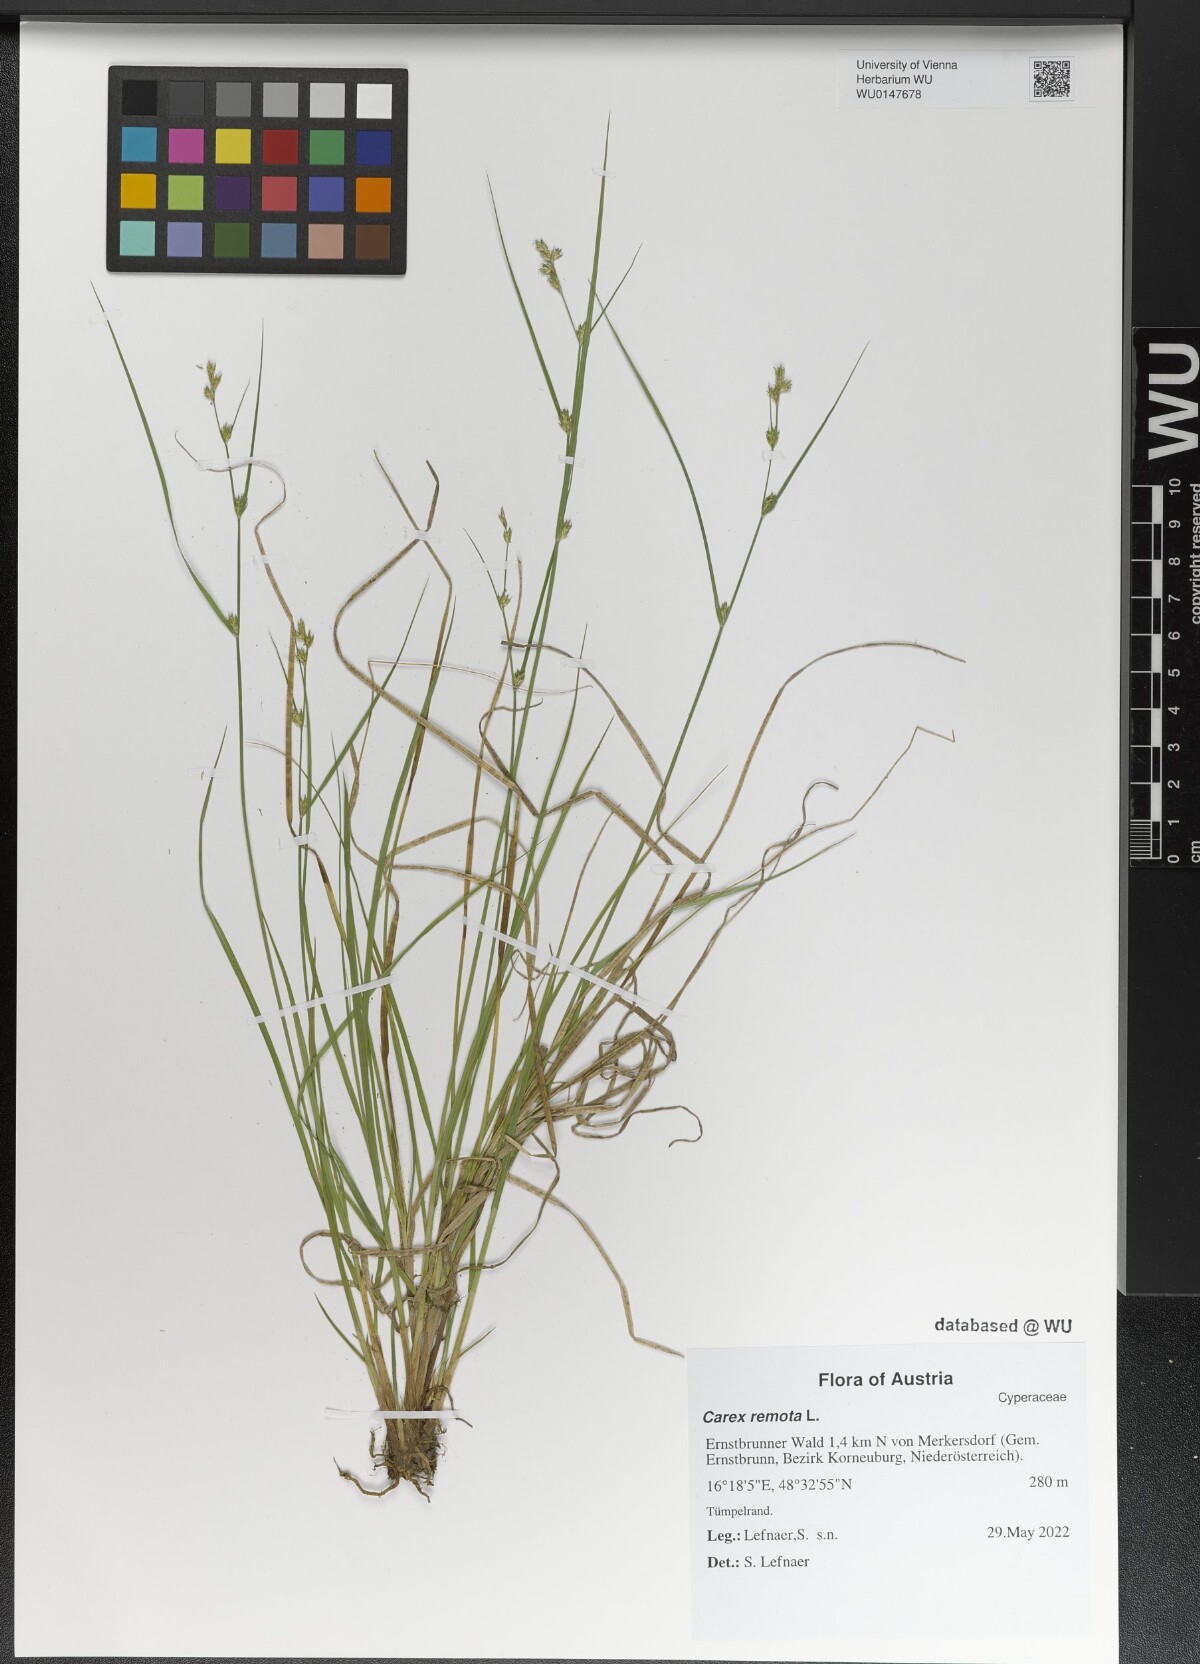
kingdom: Plantae
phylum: Tracheophyta
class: Liliopsida
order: Poales
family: Cyperaceae
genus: Carex
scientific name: Carex remota
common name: Remote sedge
